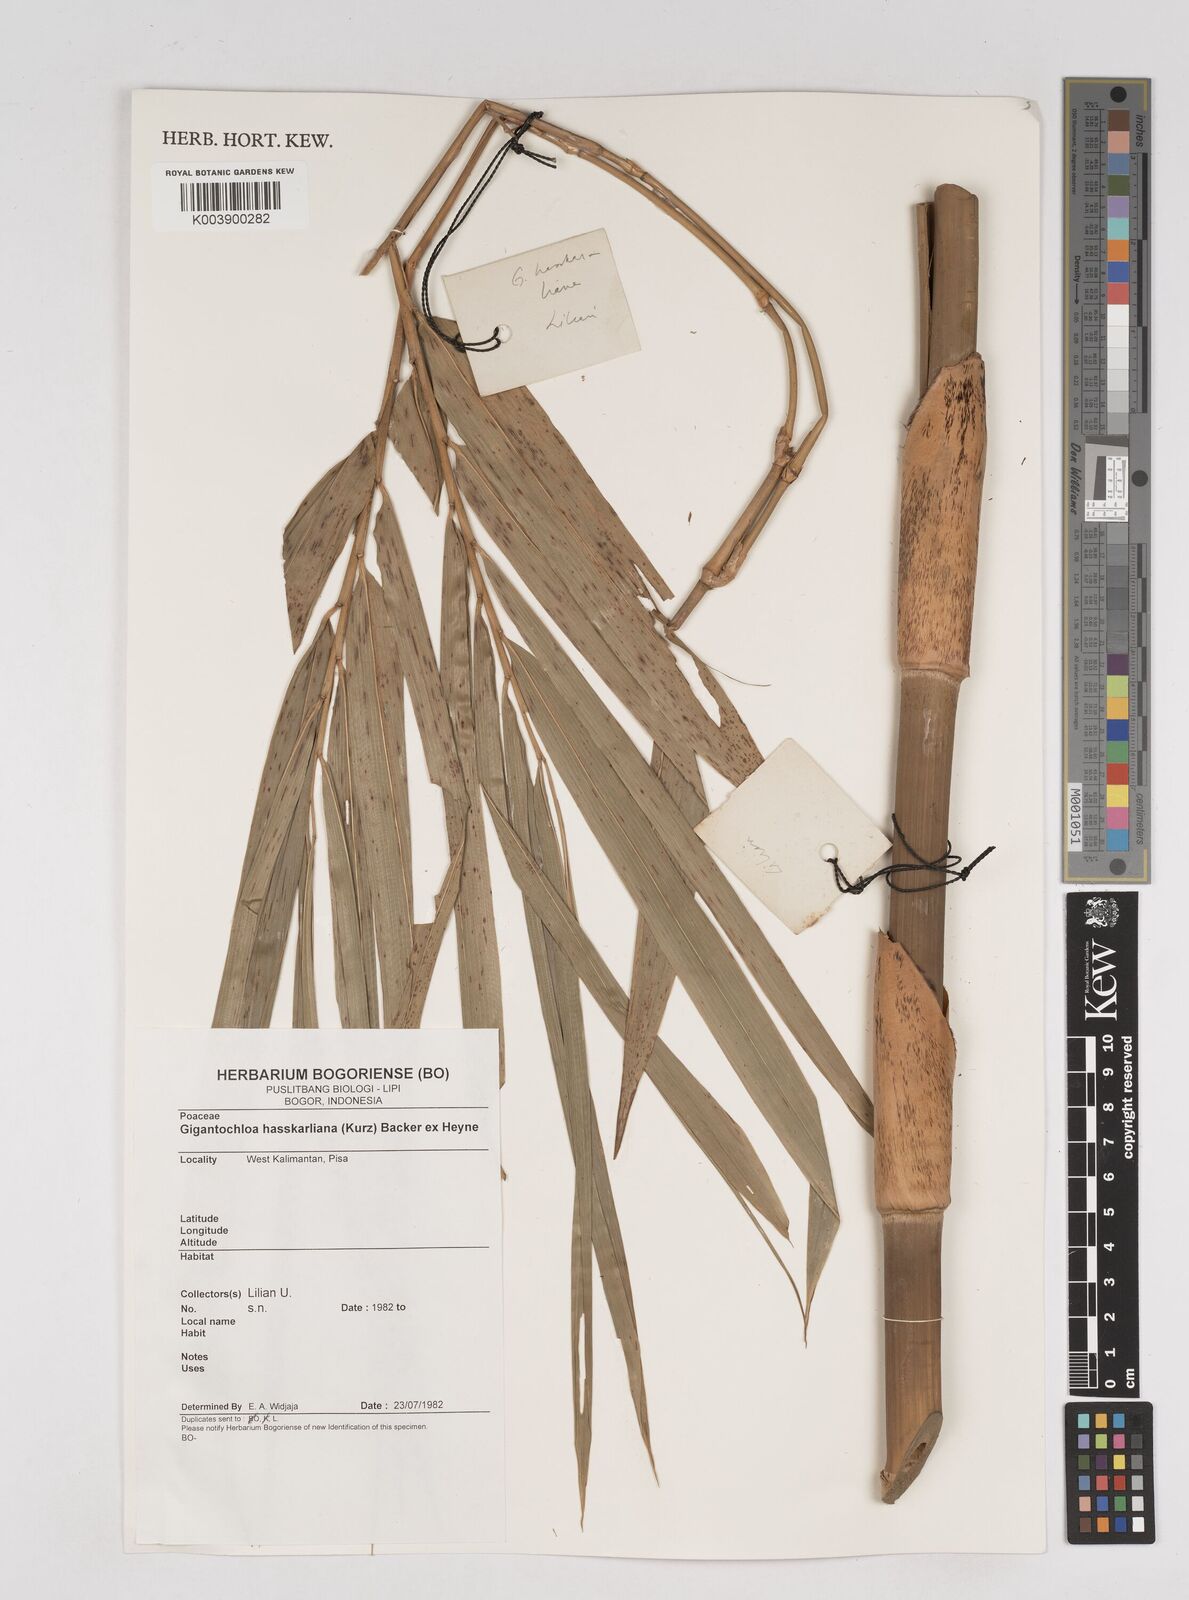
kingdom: Plantae
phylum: Tracheophyta
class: Liliopsida
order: Poales
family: Poaceae
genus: Gigantochloa
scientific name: Gigantochloa hasskarliana
